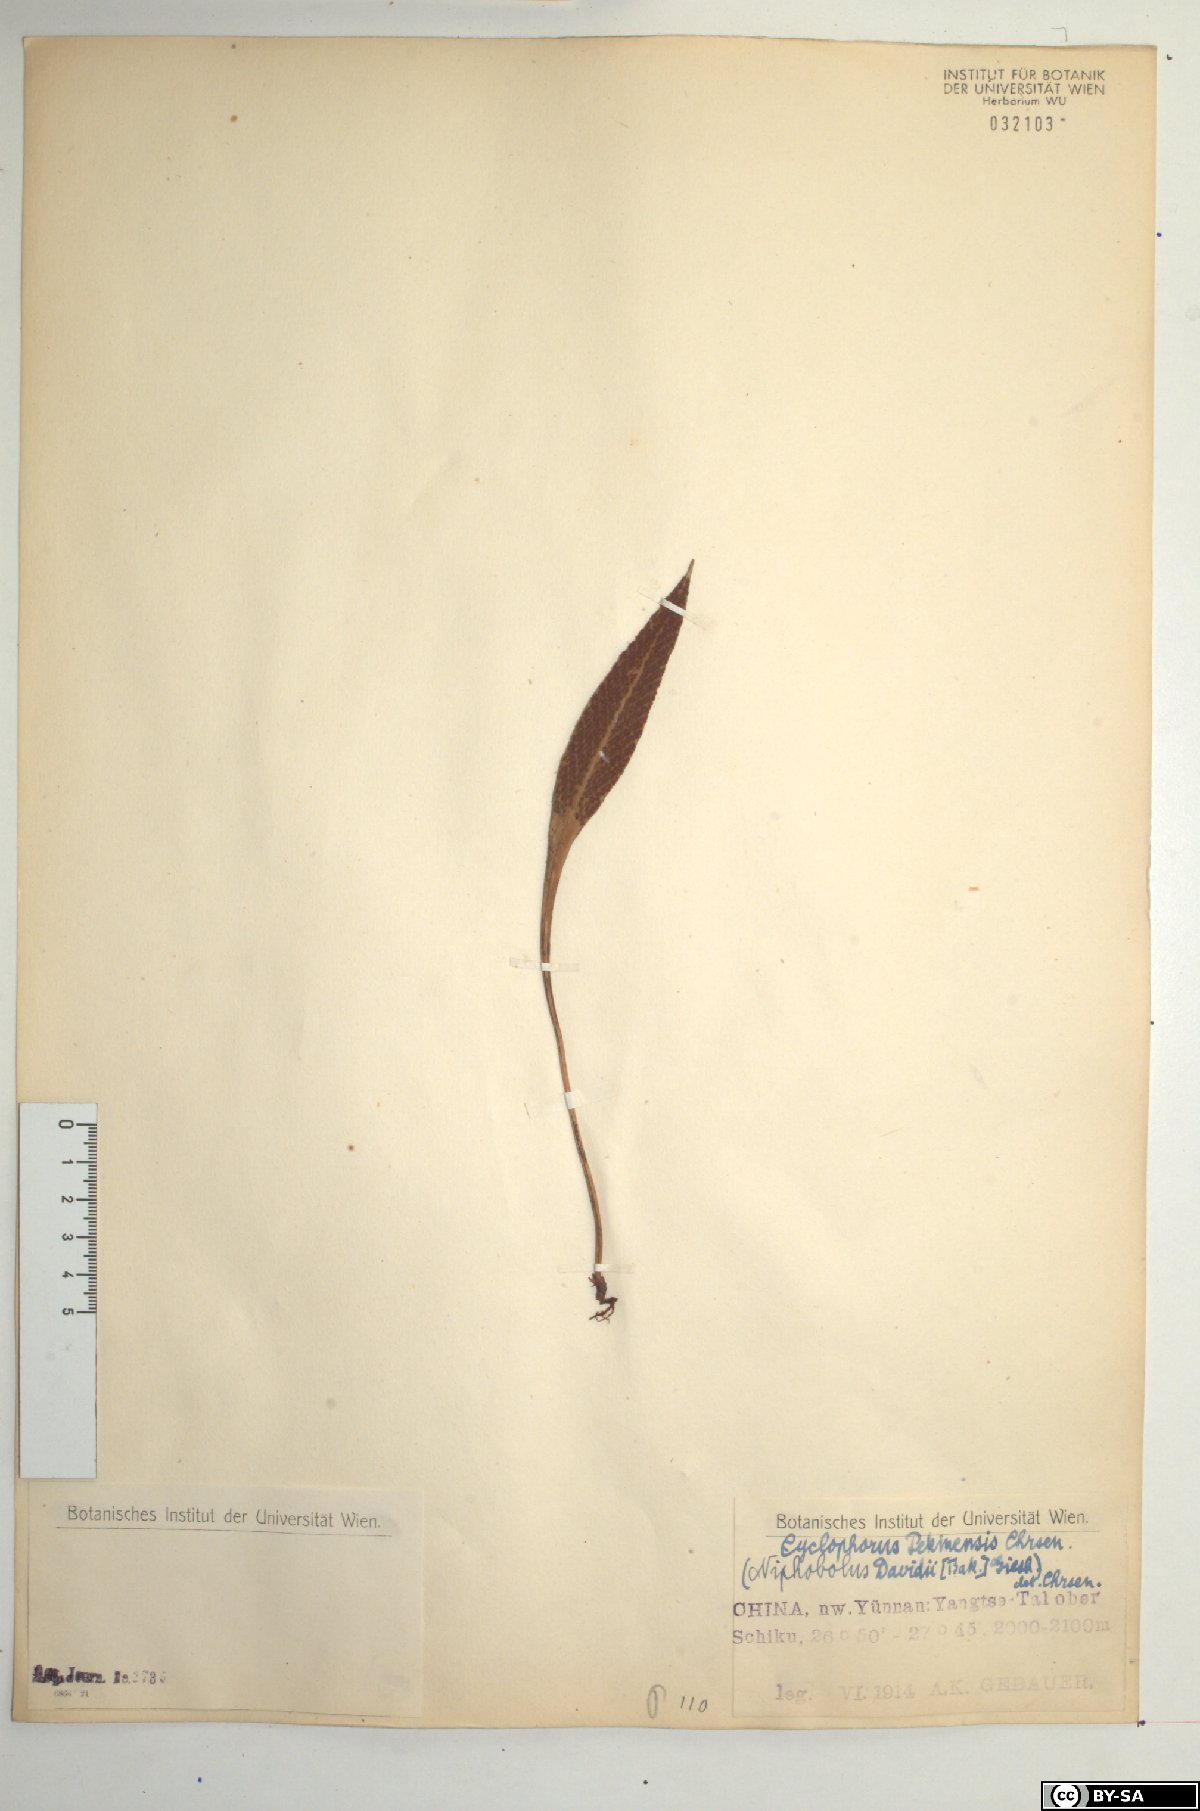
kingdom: Plantae
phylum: Tracheophyta
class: Polypodiopsida
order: Polypodiales
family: Polypodiaceae
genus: Pyrrosia
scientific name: Pyrrosia porosa
